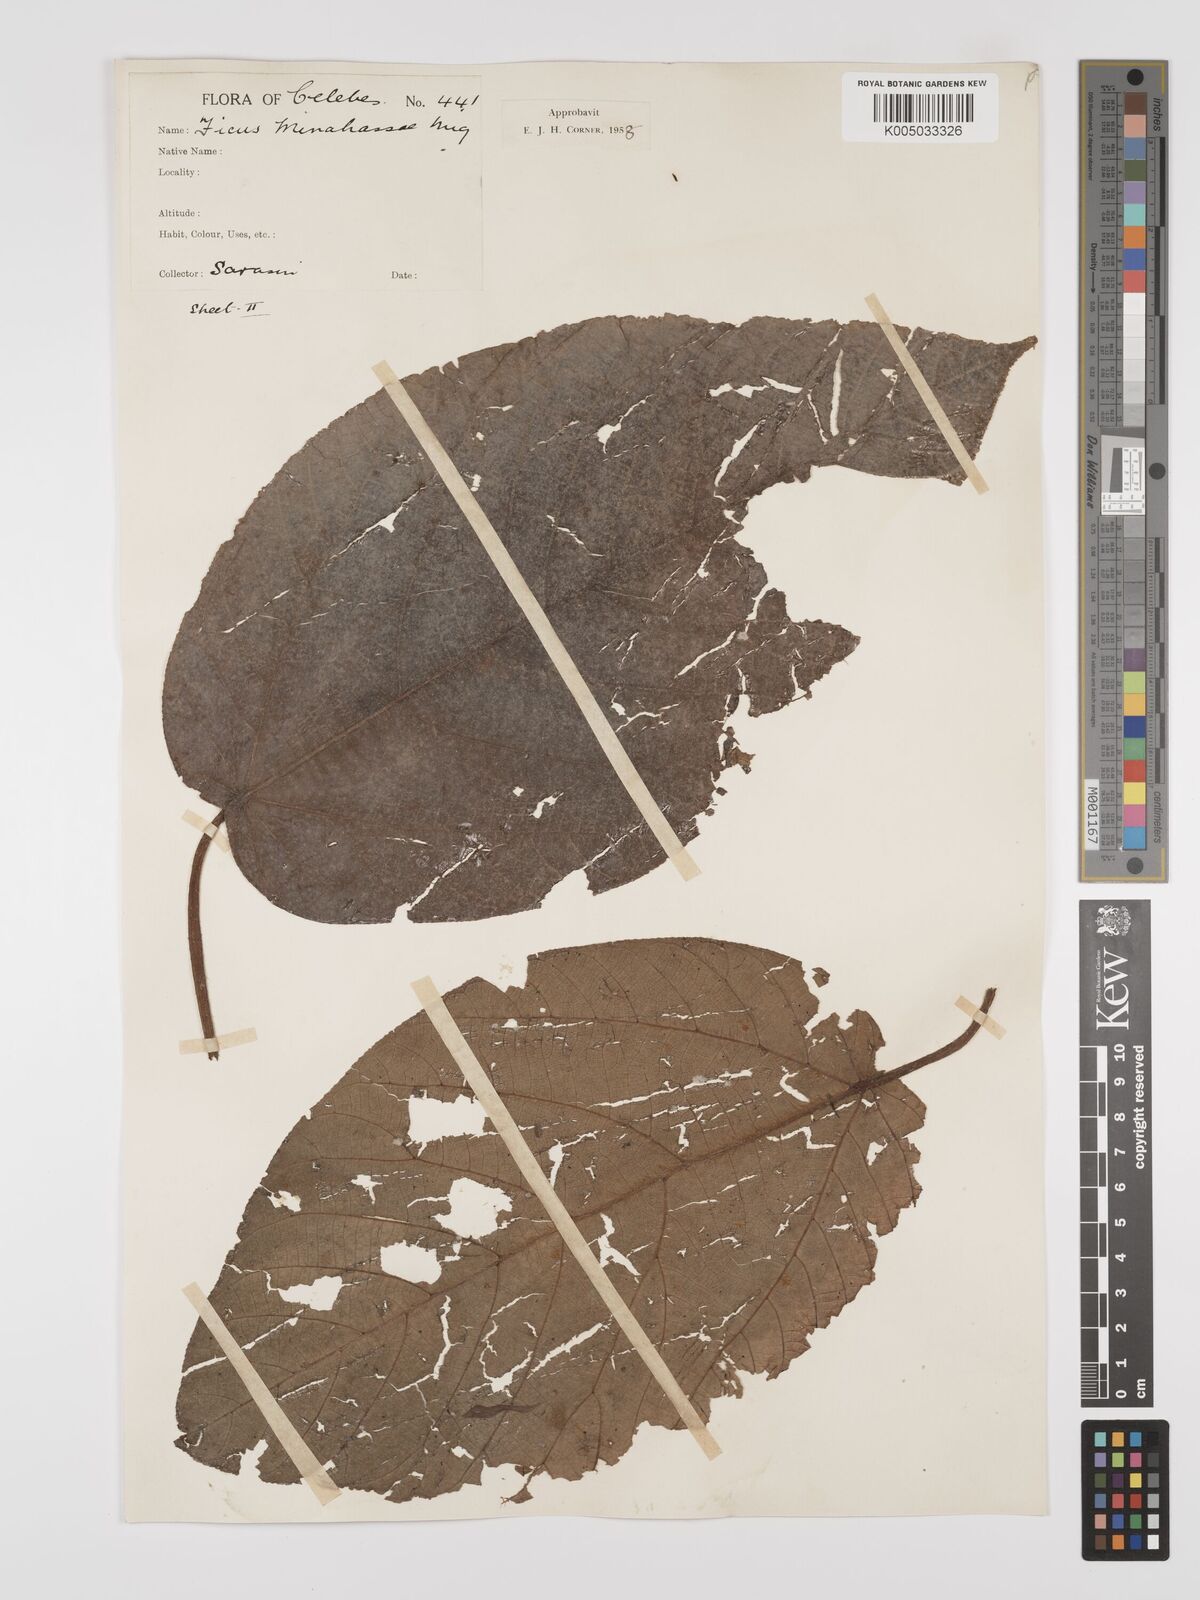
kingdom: Plantae
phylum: Tracheophyta
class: Magnoliopsida
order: Rosales
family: Moraceae
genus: Ficus
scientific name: Ficus minahassae
